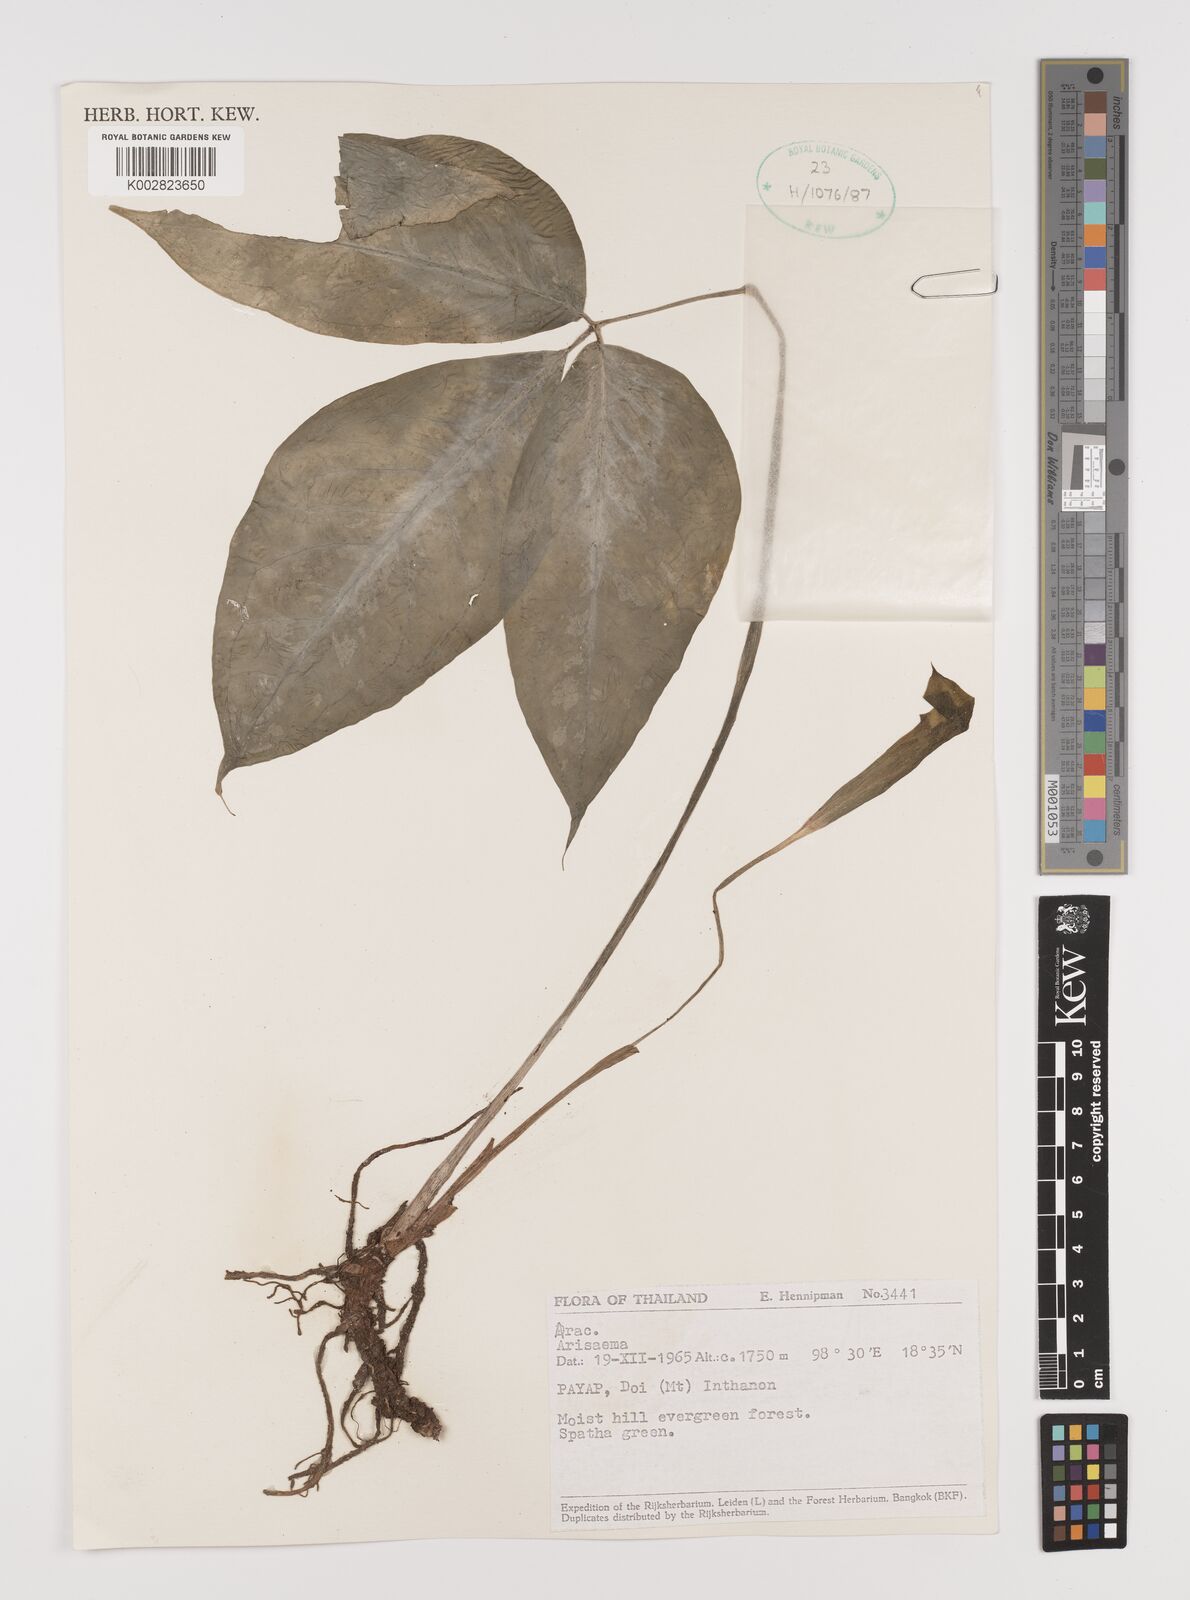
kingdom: Plantae
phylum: Tracheophyta
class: Liliopsida
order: Alismatales
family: Araceae
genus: Arisaema
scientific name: Arisaema
